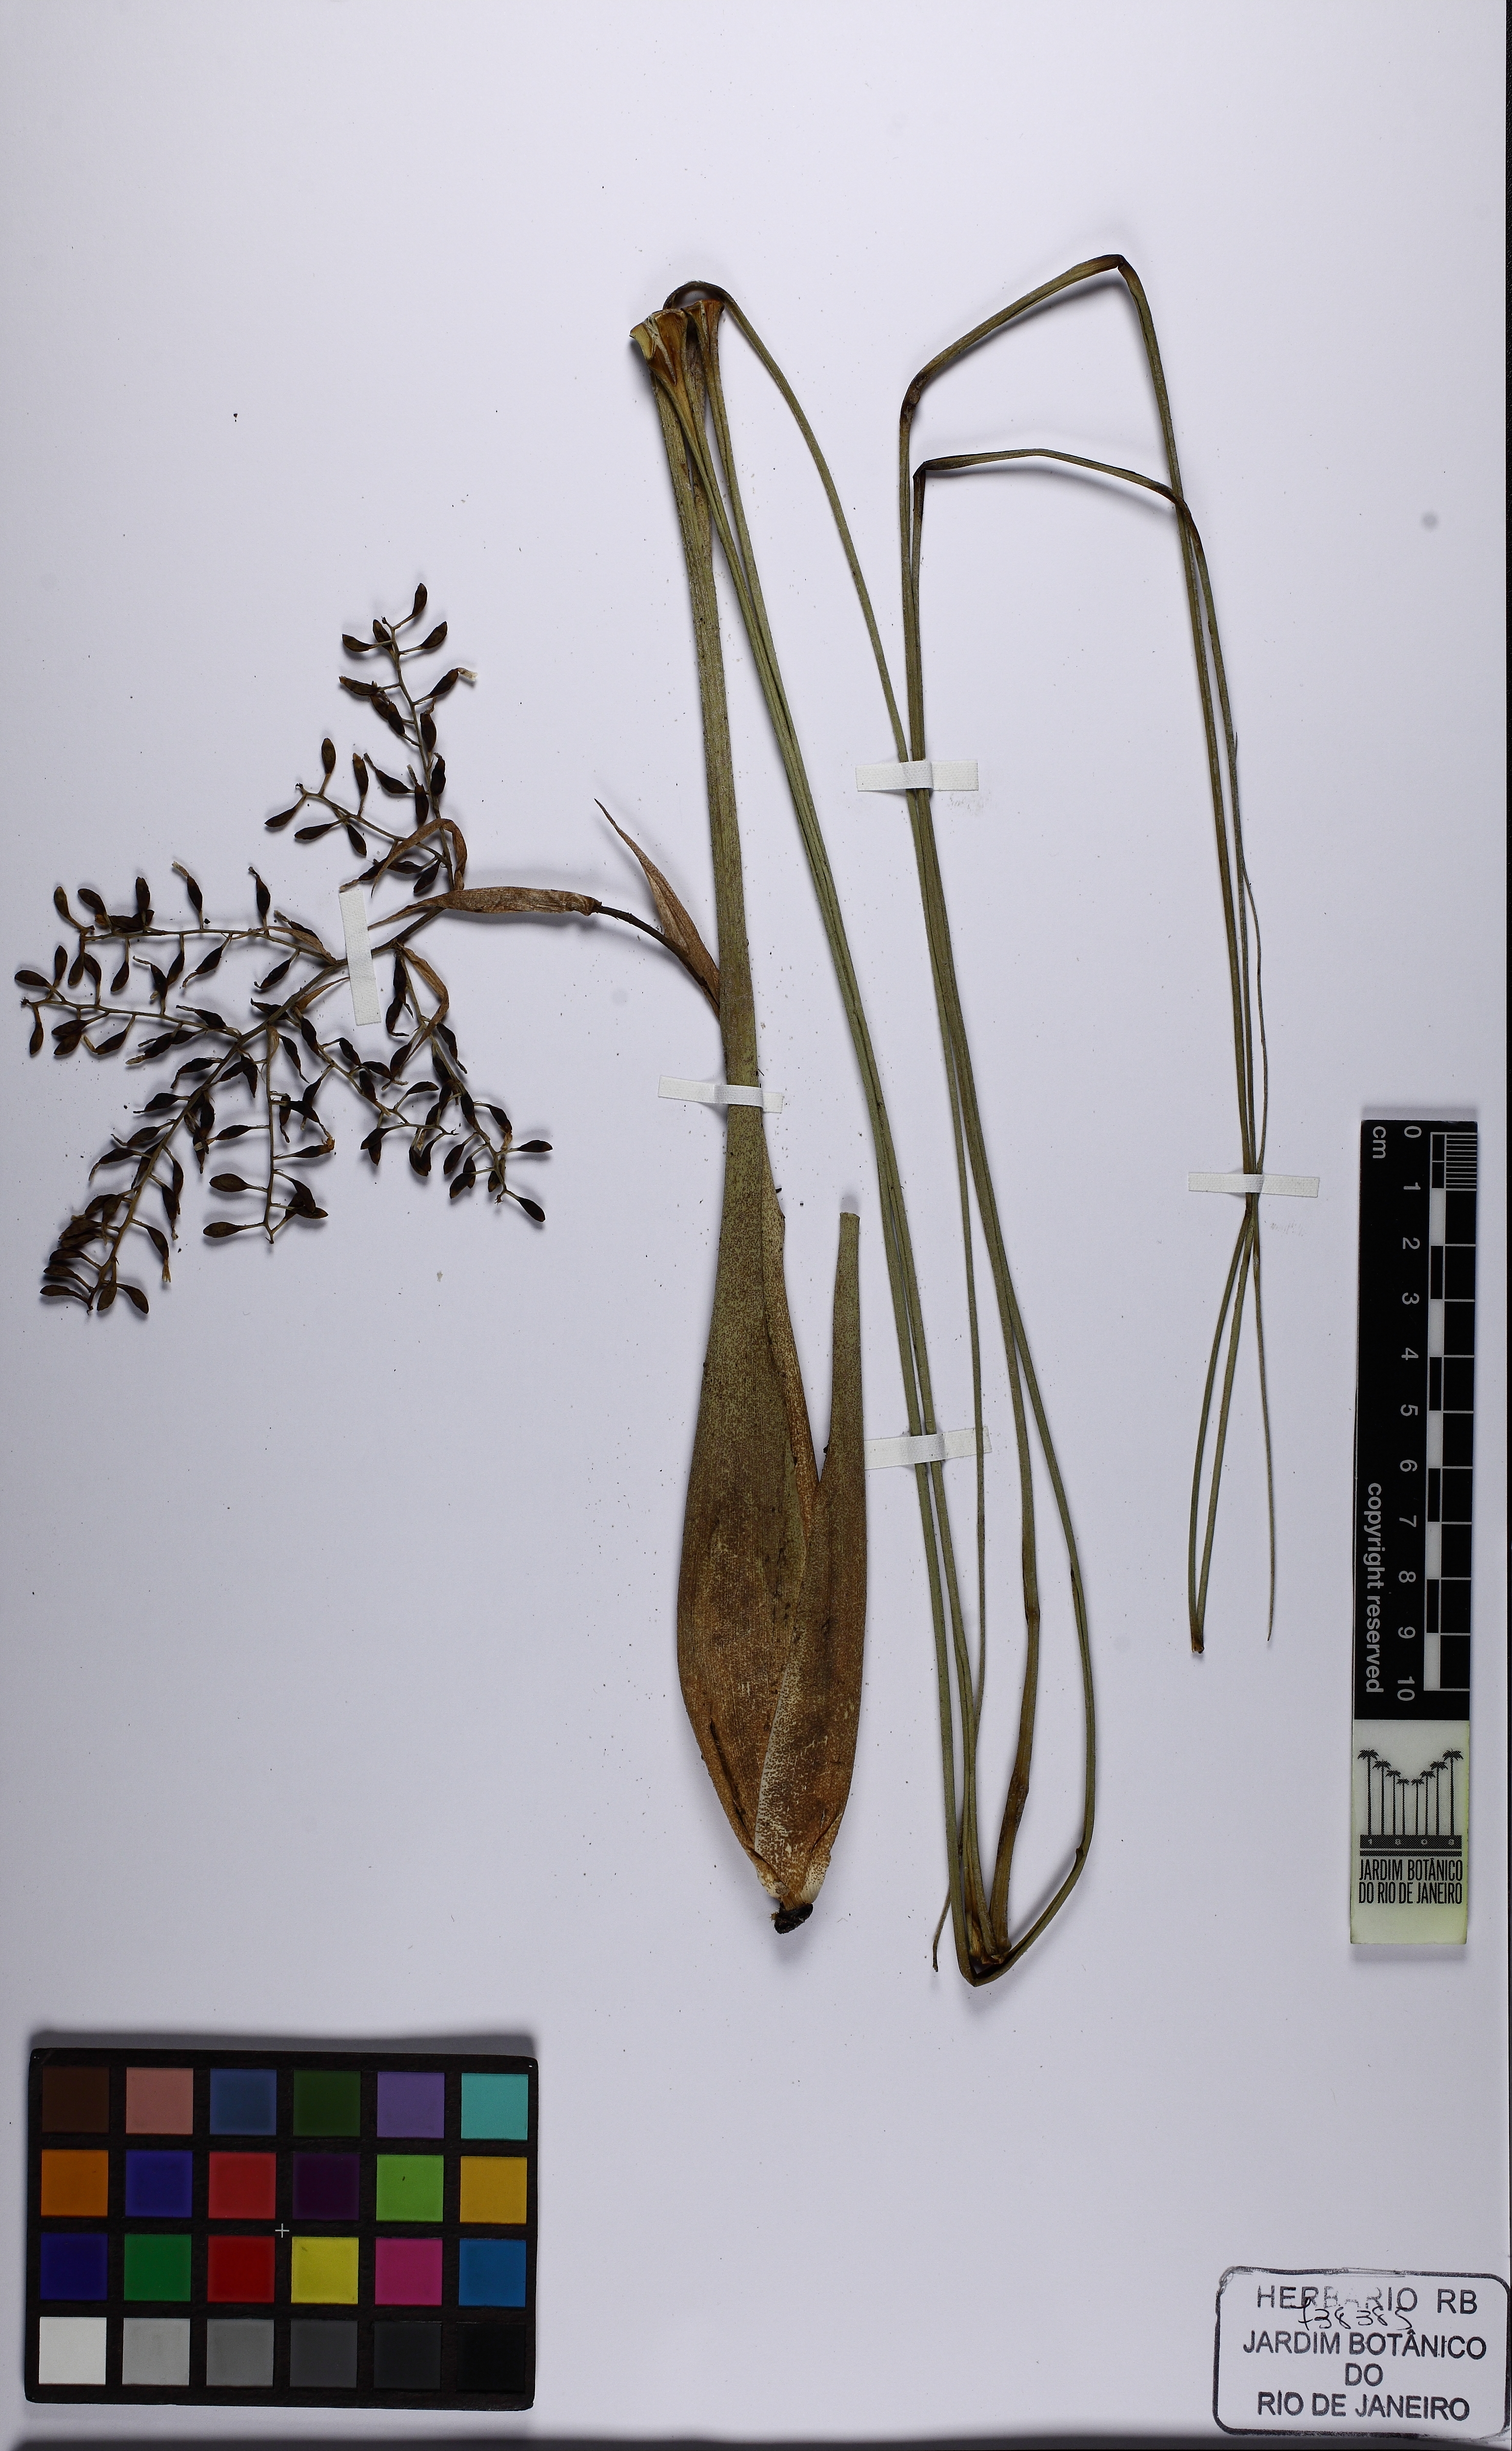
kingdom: Plantae
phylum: Tracheophyta
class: Liliopsida
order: Poales
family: Bromeliaceae
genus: Araeococcus
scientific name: Araeococcus flagellifolius
